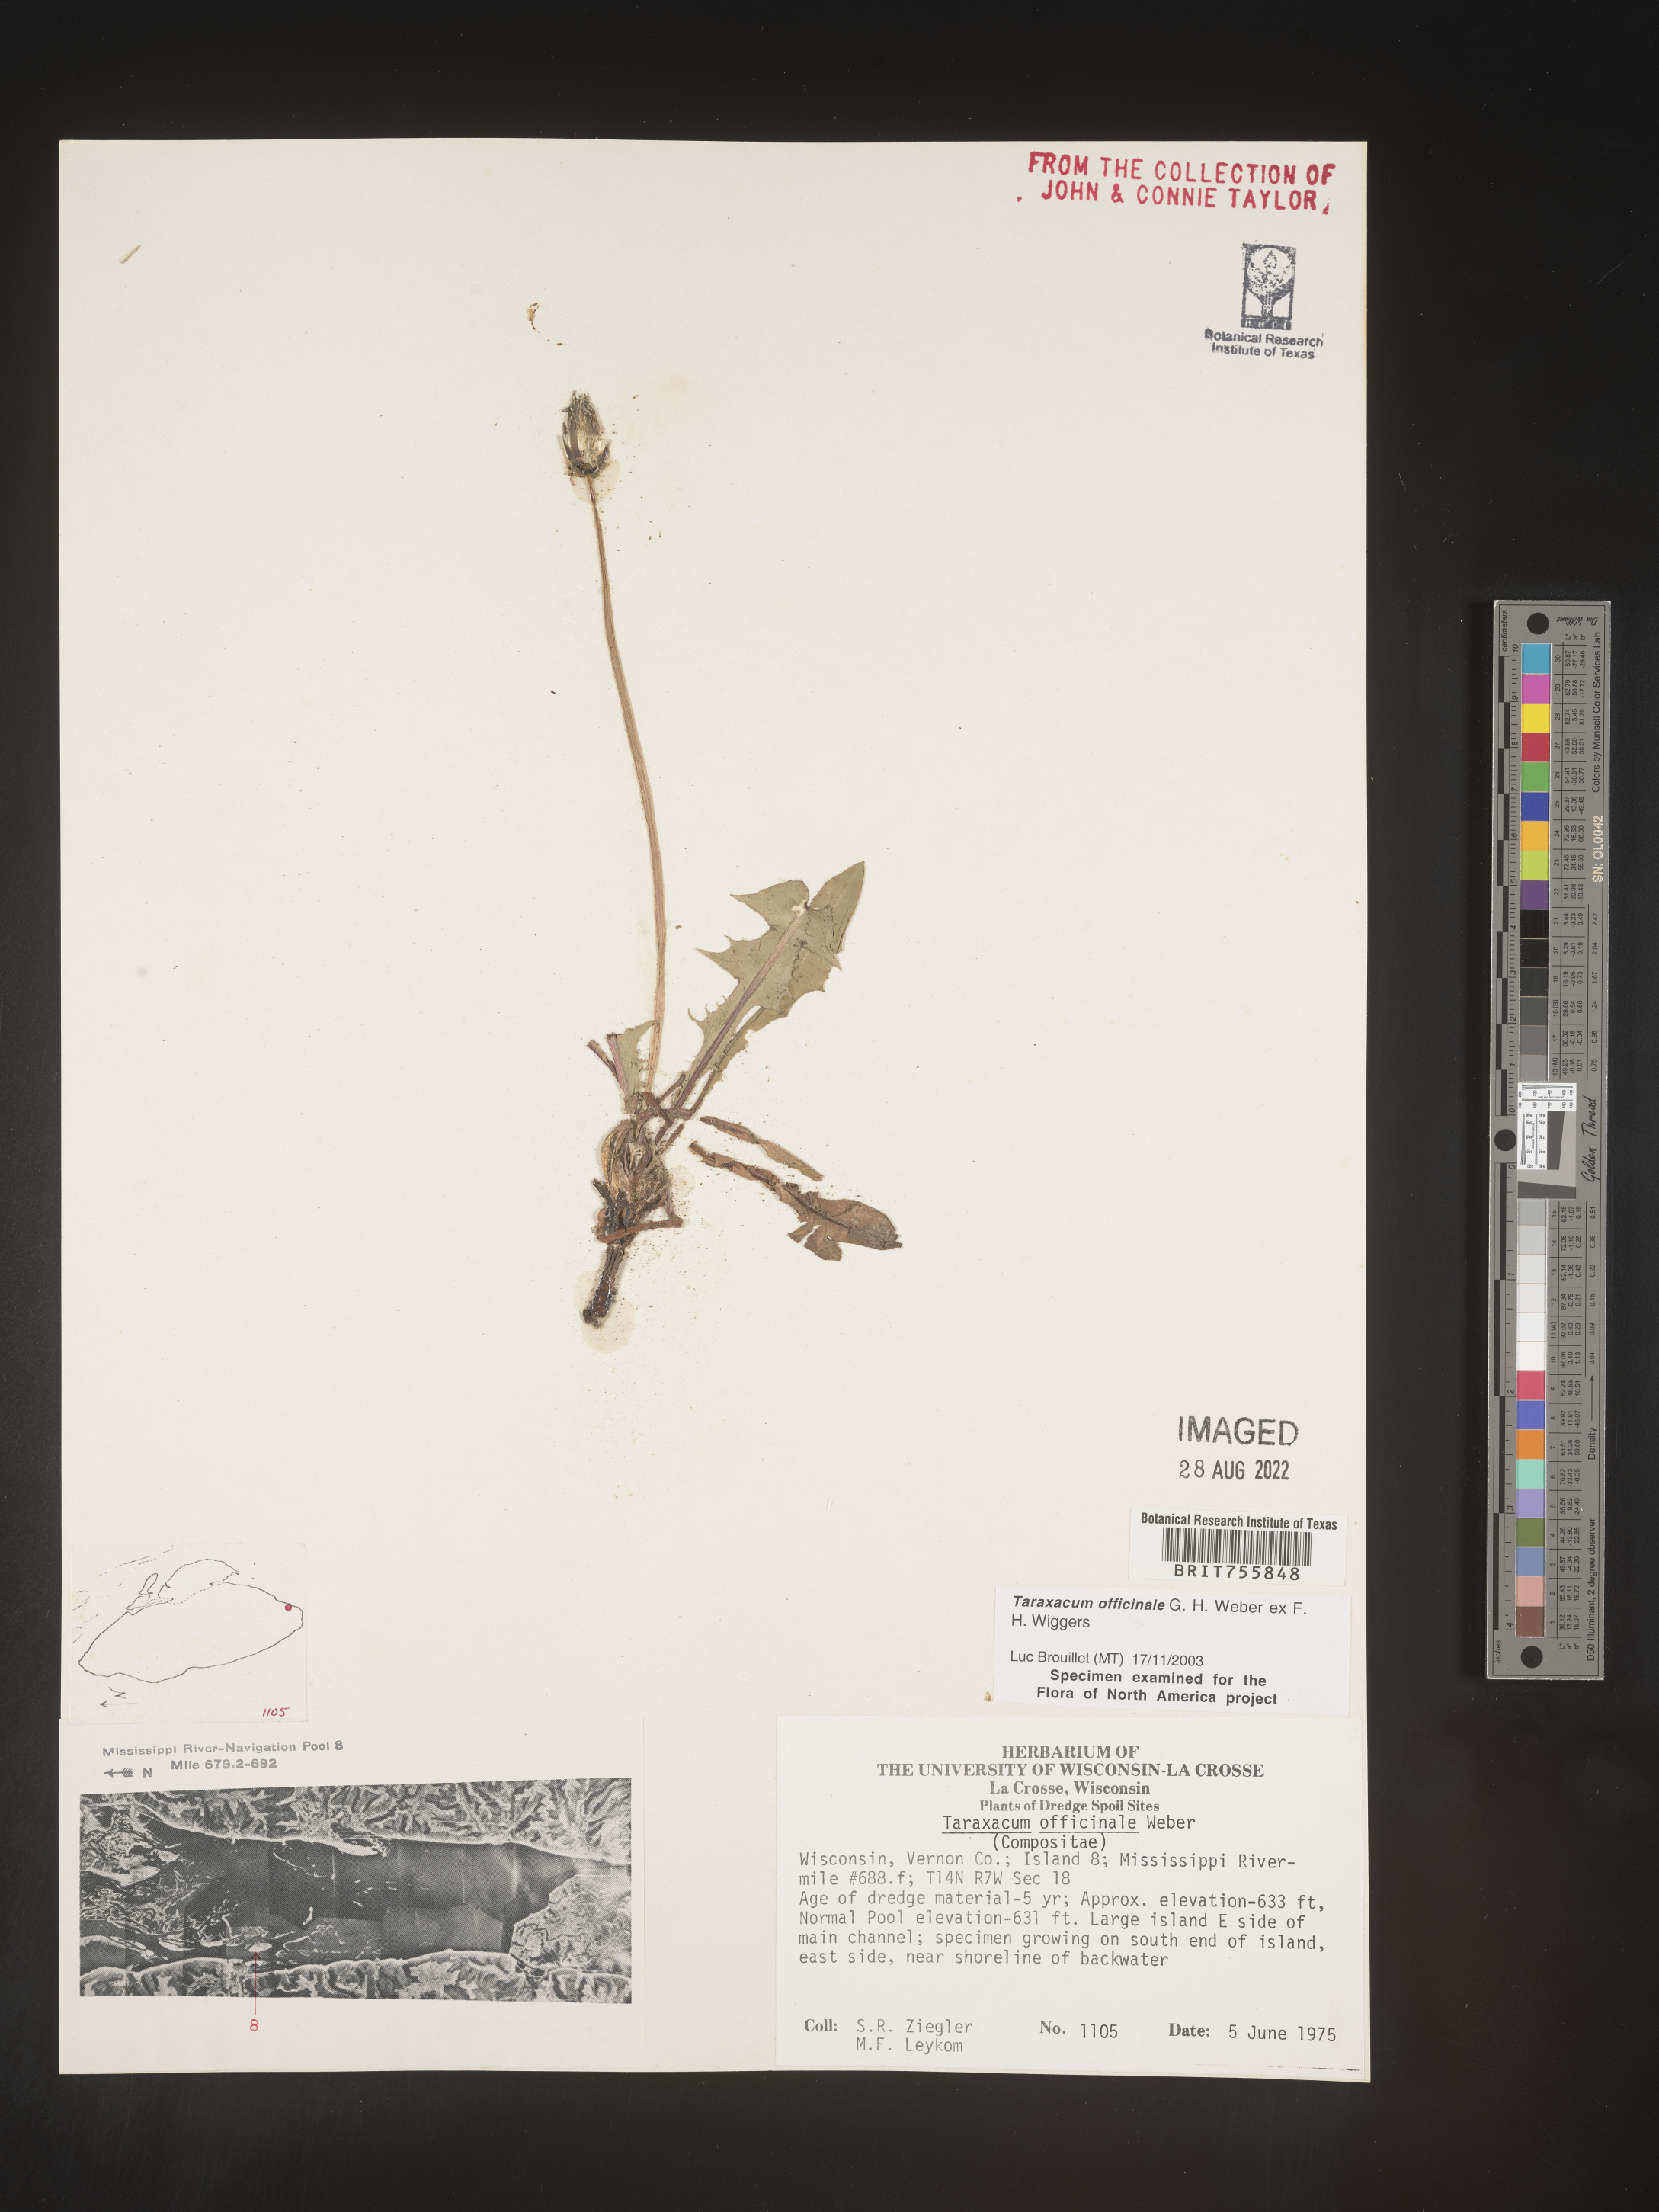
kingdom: Plantae
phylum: Tracheophyta
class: Magnoliopsida
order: Asterales
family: Asteraceae
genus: Taraxacum
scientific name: Taraxacum officinale
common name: Common dandelion
